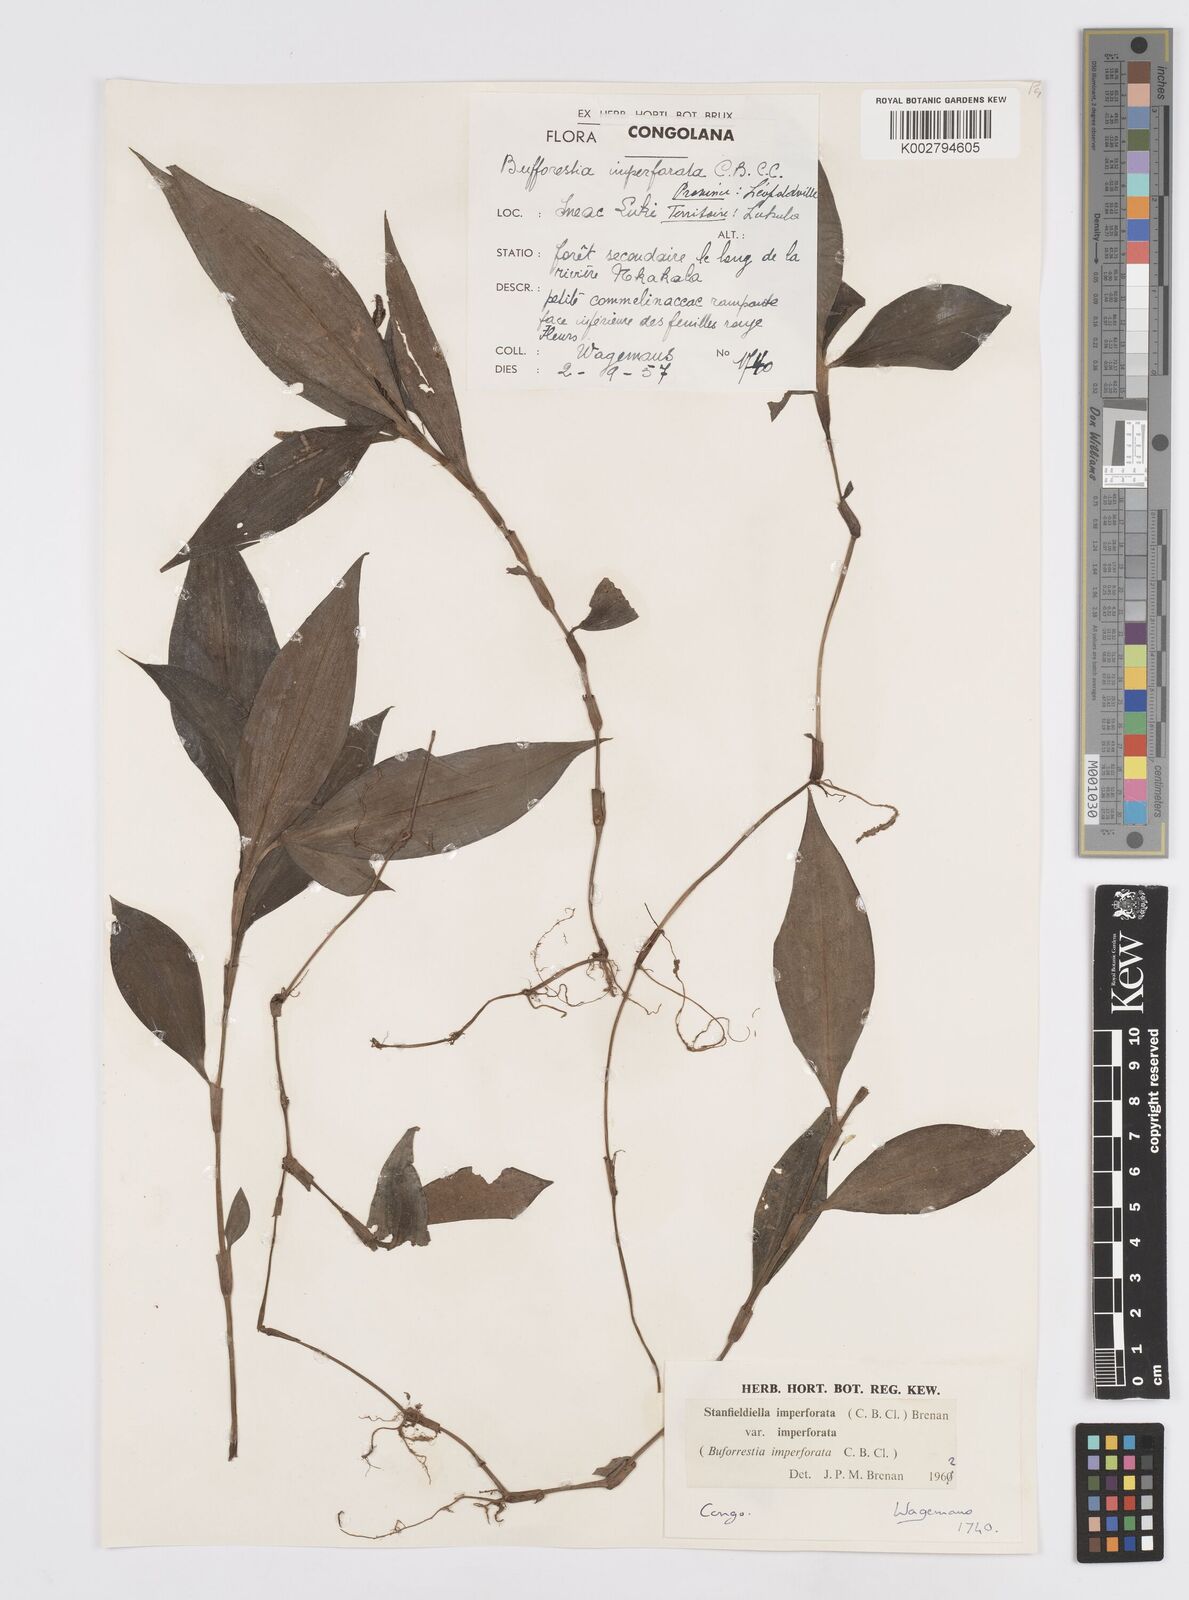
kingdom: Plantae
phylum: Tracheophyta
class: Liliopsida
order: Commelinales
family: Commelinaceae
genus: Stanfieldiella
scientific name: Stanfieldiella imperforata
